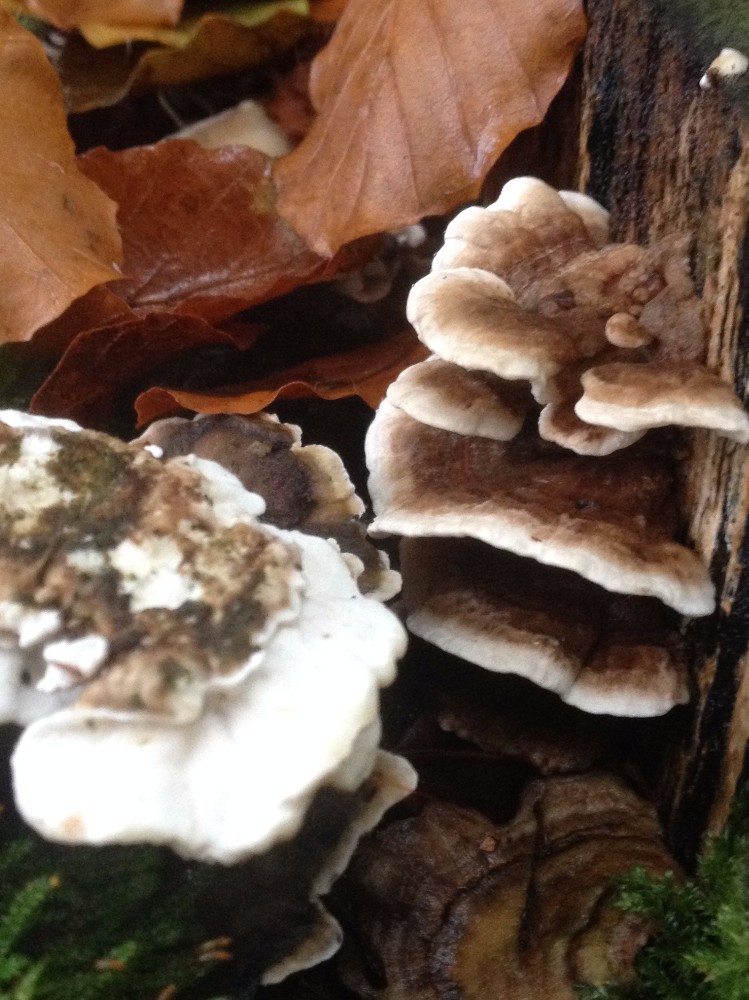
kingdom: Fungi
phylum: Basidiomycota
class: Agaricomycetes
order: Polyporales
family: Polyporaceae
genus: Trametes
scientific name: Trametes versicolor
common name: broget læderporesvamp
